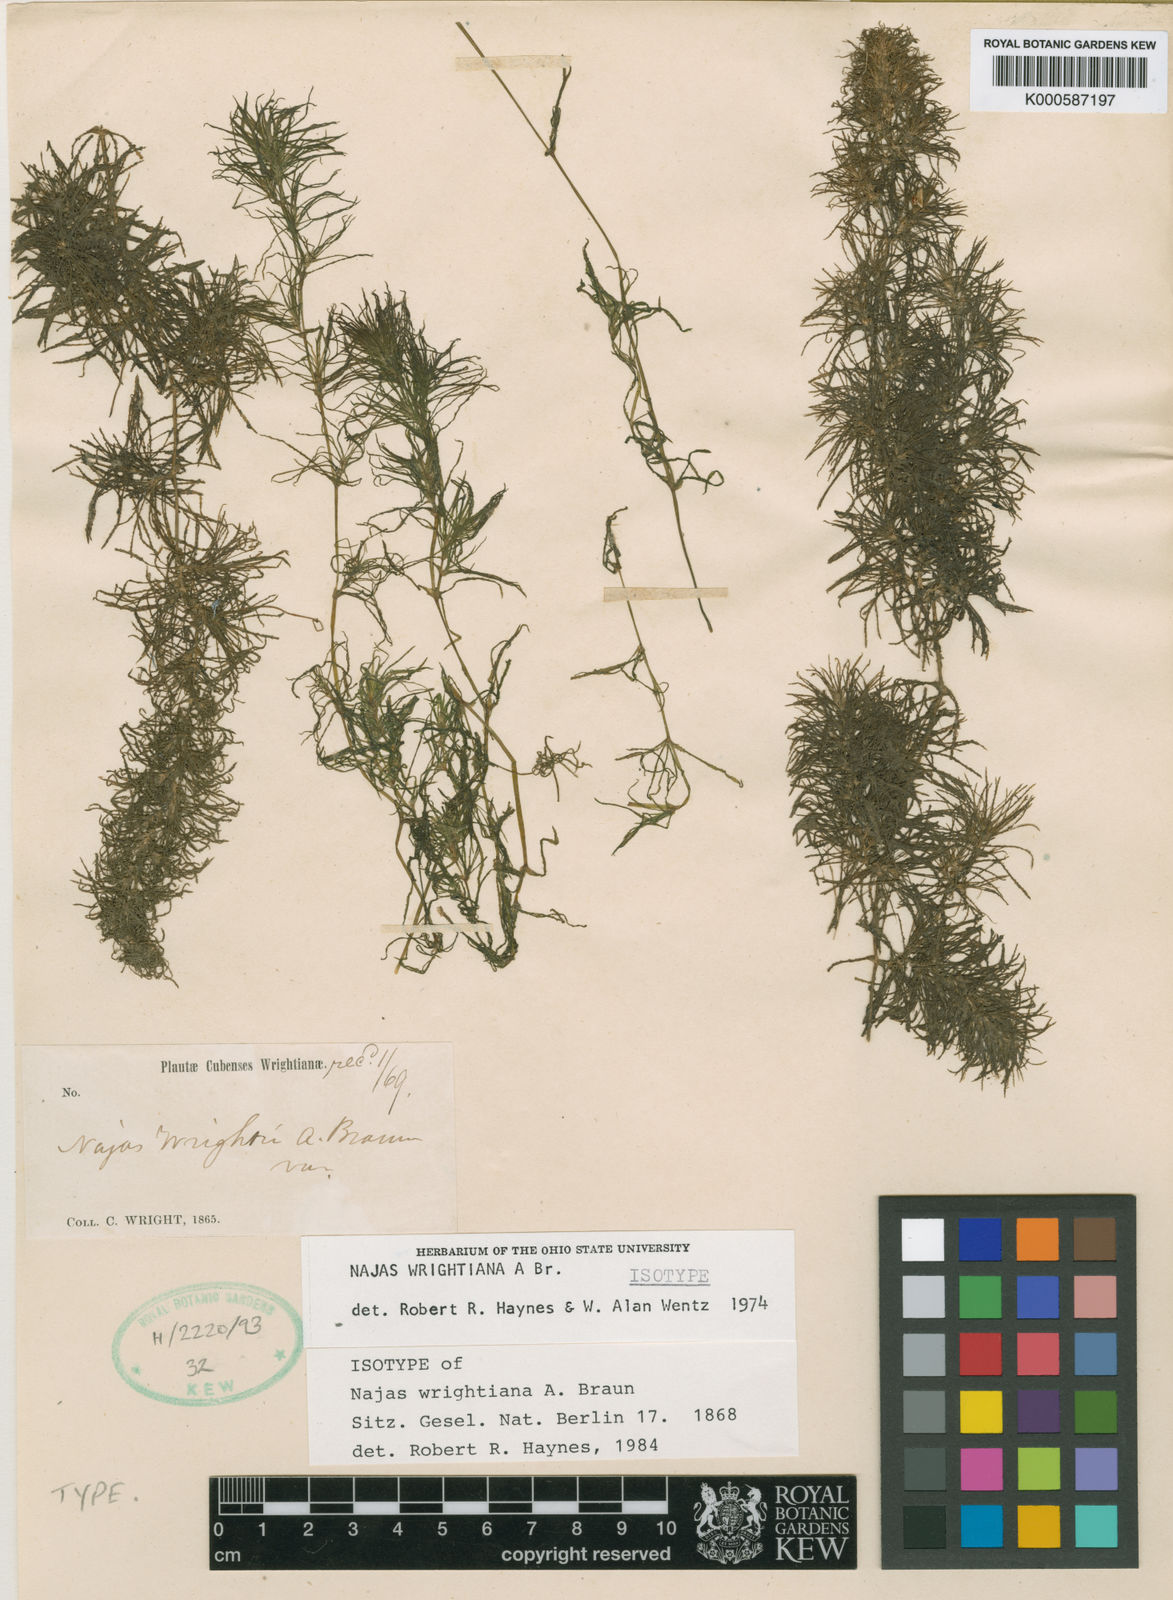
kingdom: Plantae
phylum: Tracheophyta
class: Liliopsida
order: Alismatales
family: Hydrocharitaceae
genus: Najas
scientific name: Najas wrightiana
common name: Wright's waternymph
